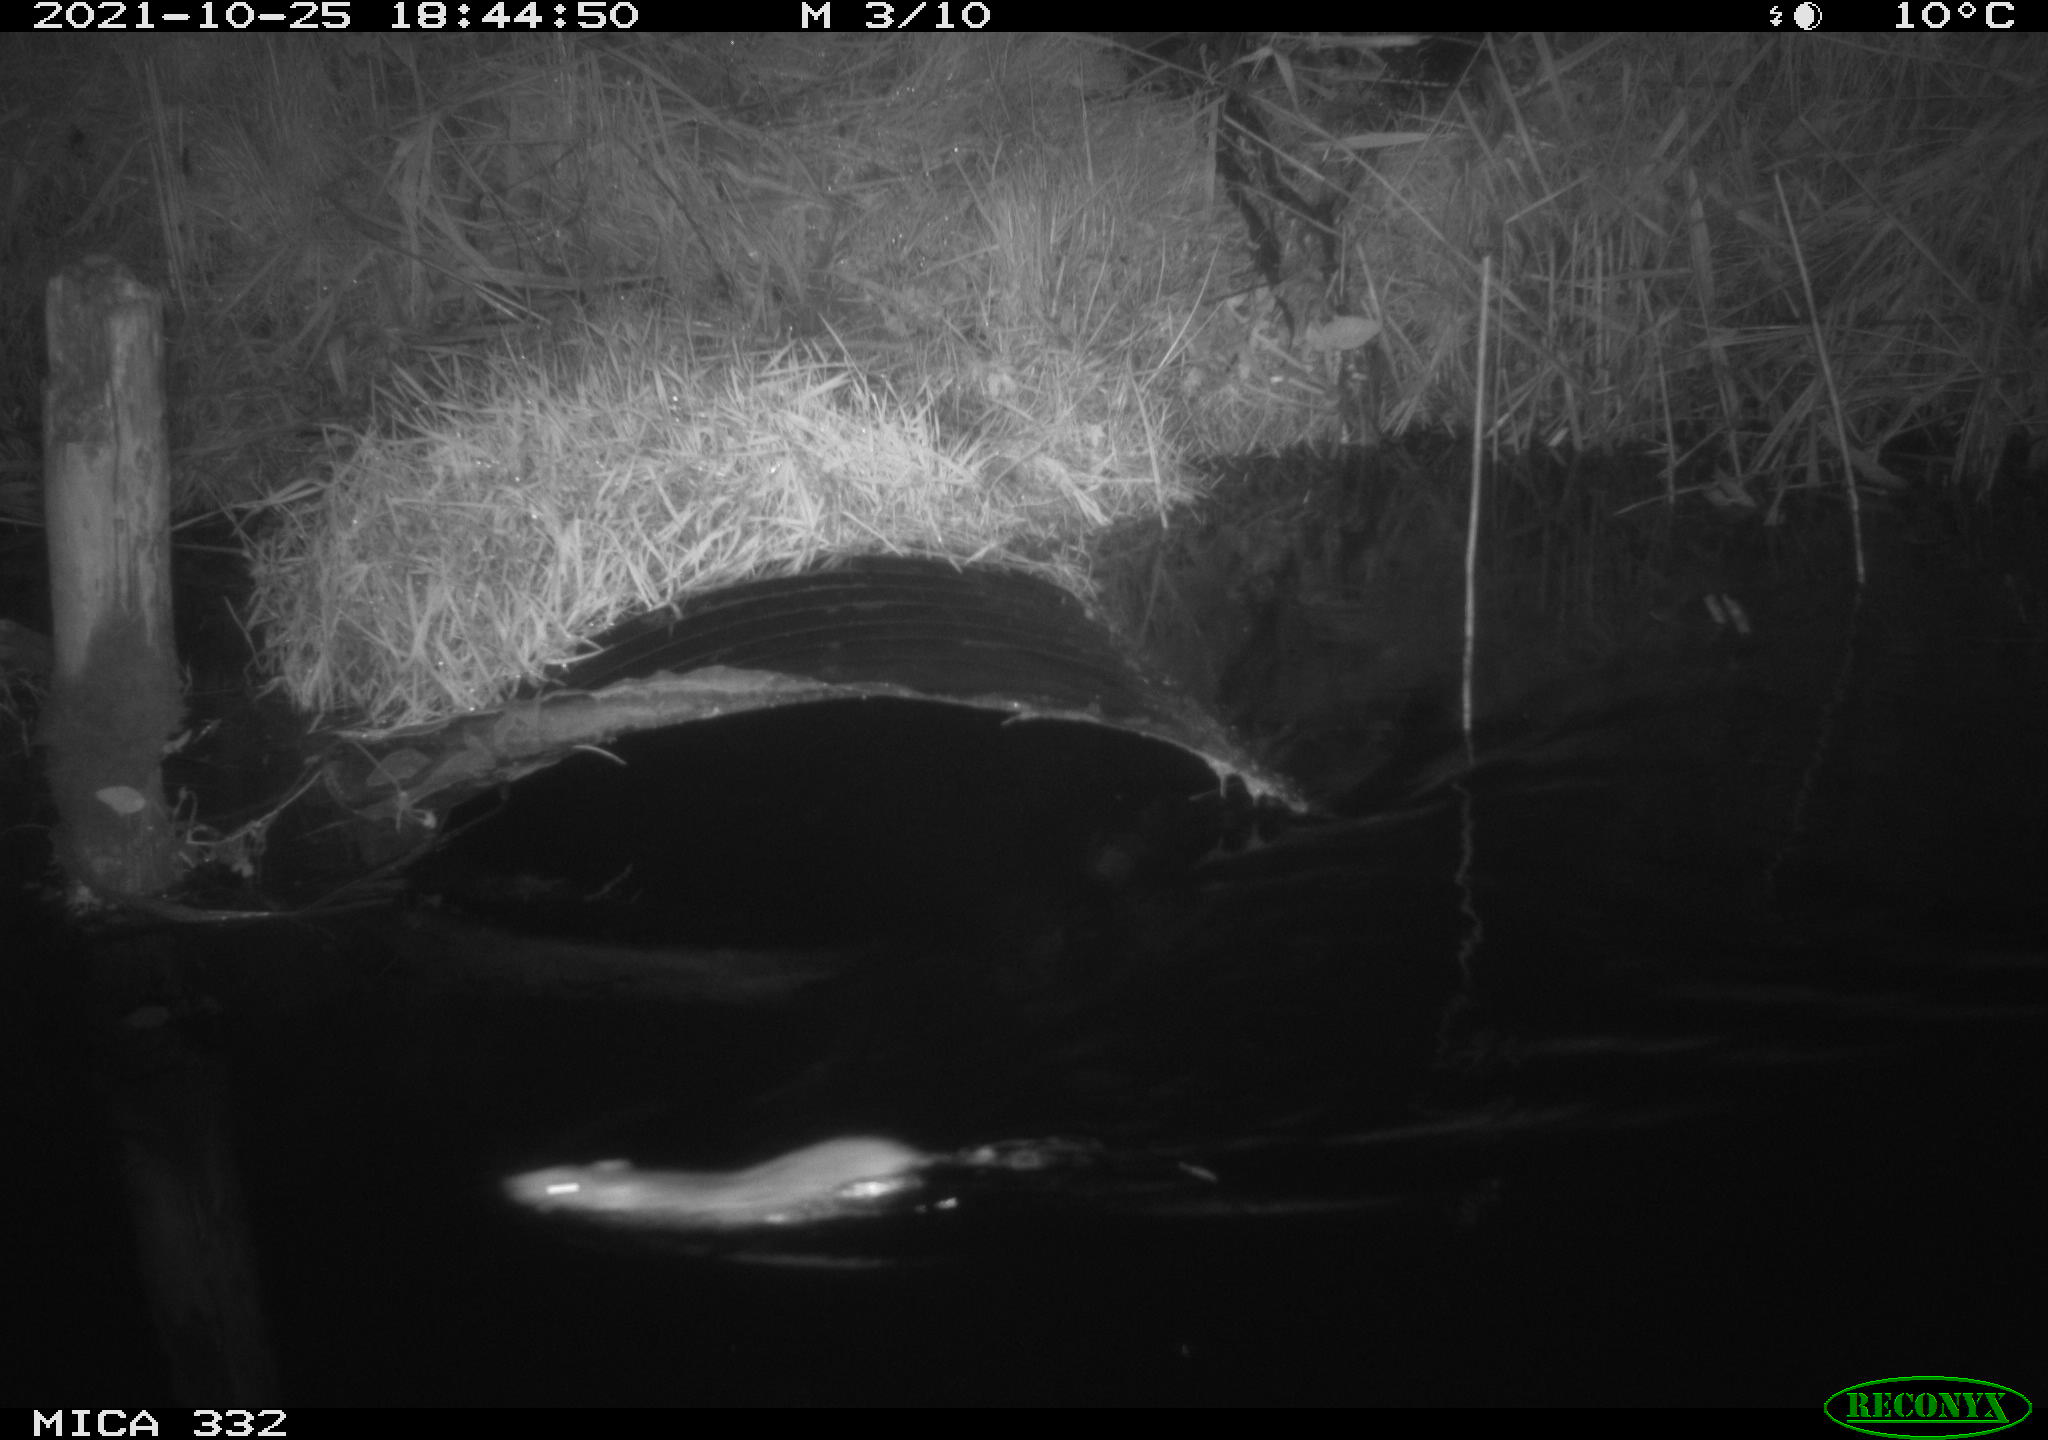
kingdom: Animalia
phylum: Chordata
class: Mammalia
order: Rodentia
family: Muridae
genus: Rattus
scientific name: Rattus norvegicus
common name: Brown rat
